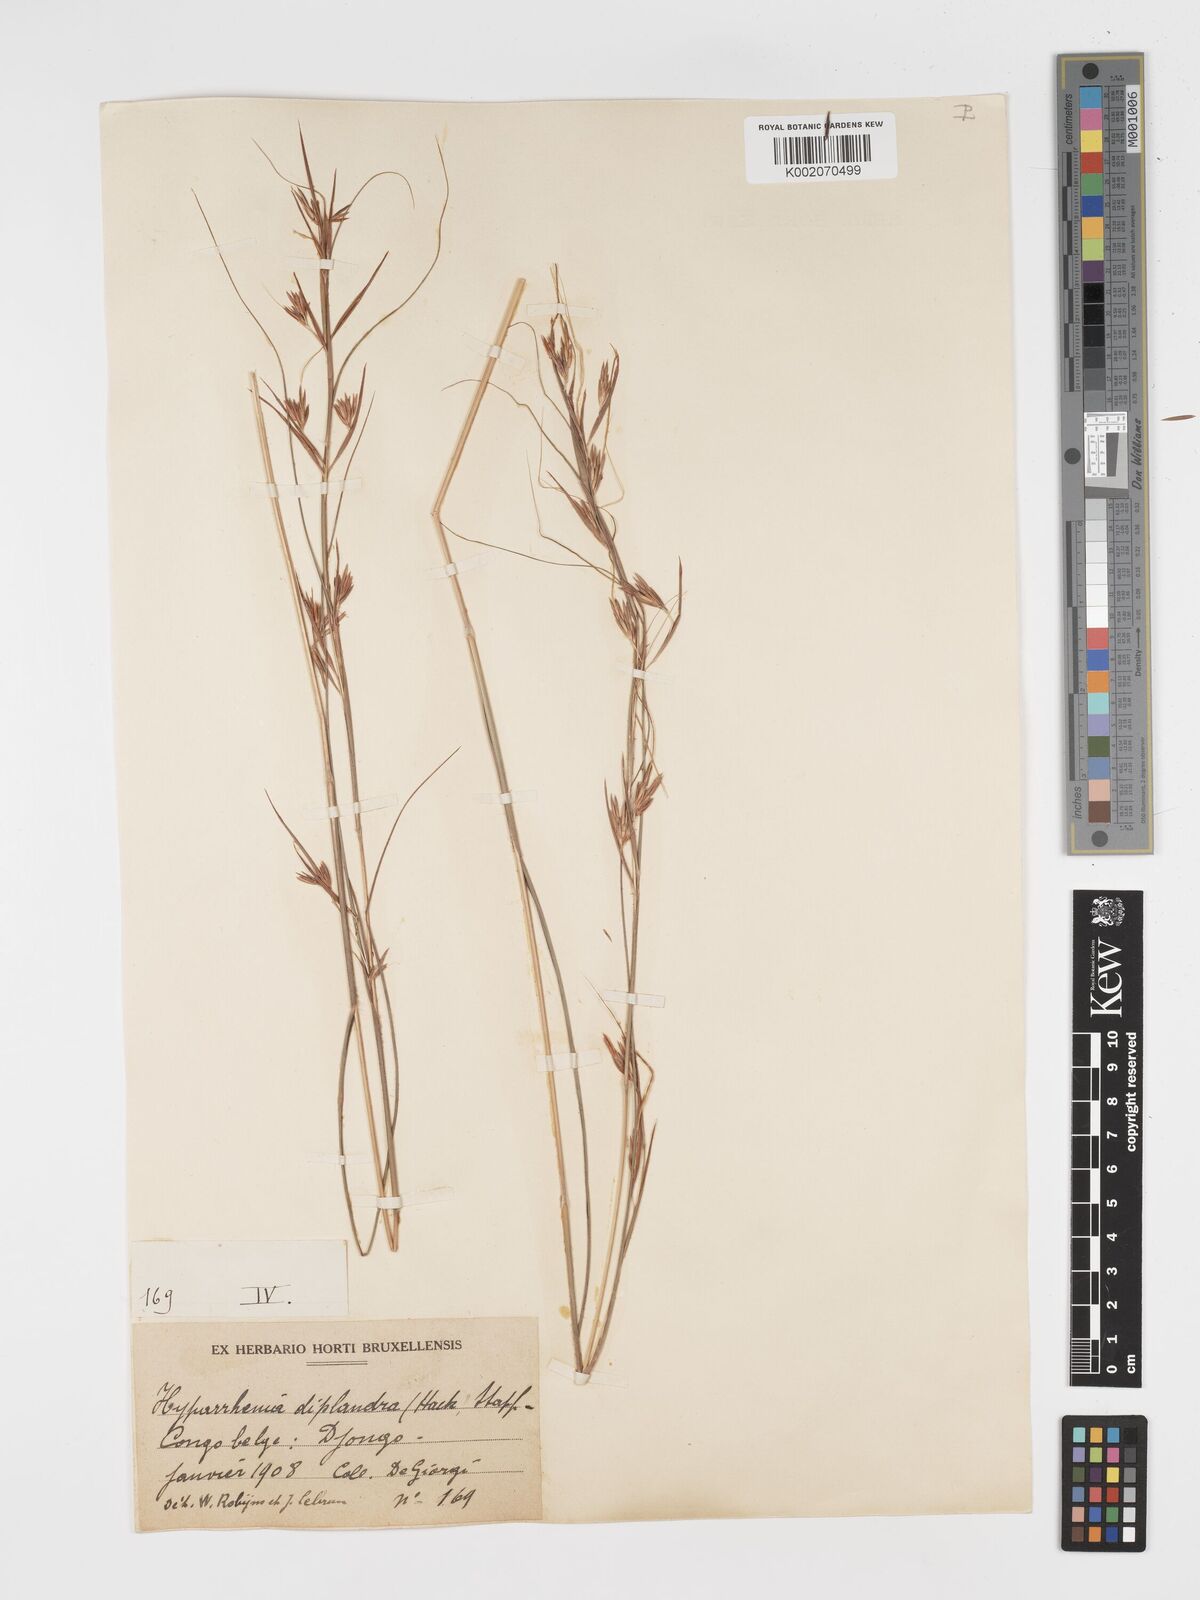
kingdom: Plantae
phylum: Tracheophyta
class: Liliopsida
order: Poales
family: Poaceae
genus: Hyparrhenia
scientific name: Hyparrhenia diplandra
